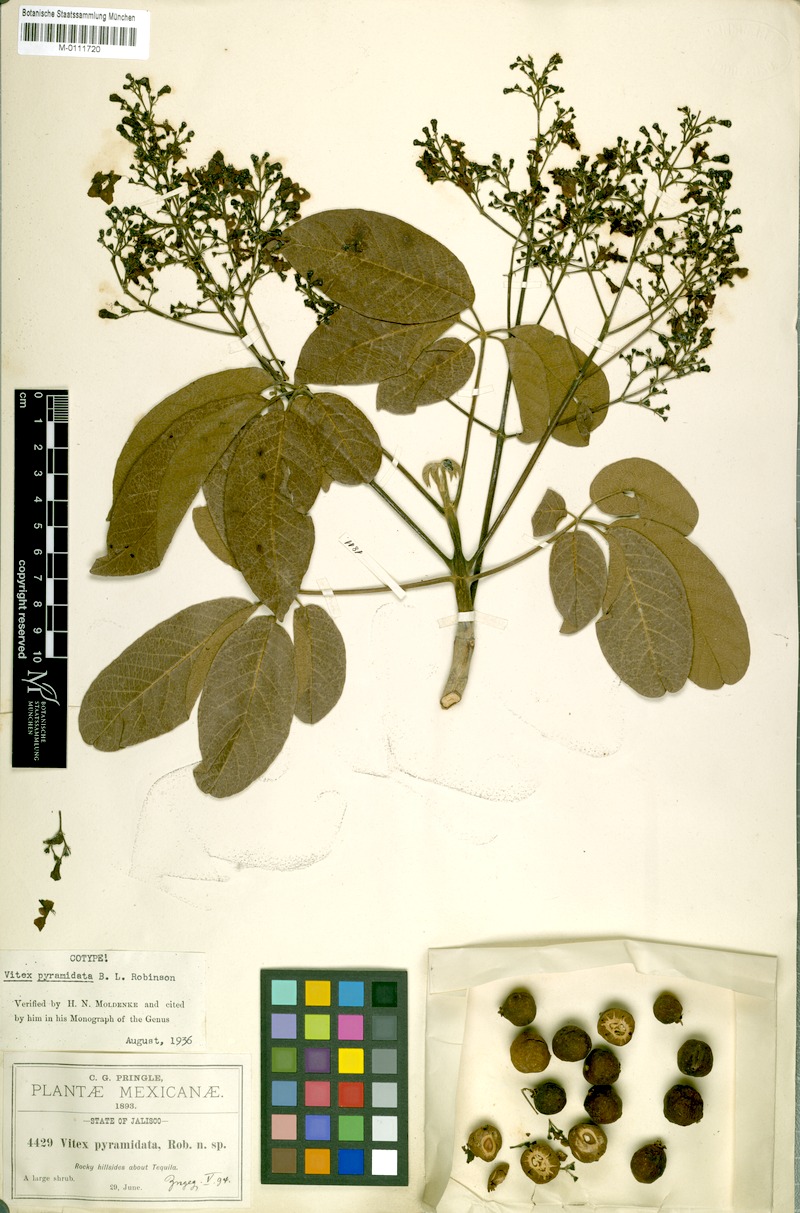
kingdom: Plantae
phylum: Tracheophyta
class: Magnoliopsida
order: Lamiales
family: Lamiaceae
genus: Vitex
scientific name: Vitex pyramidata
